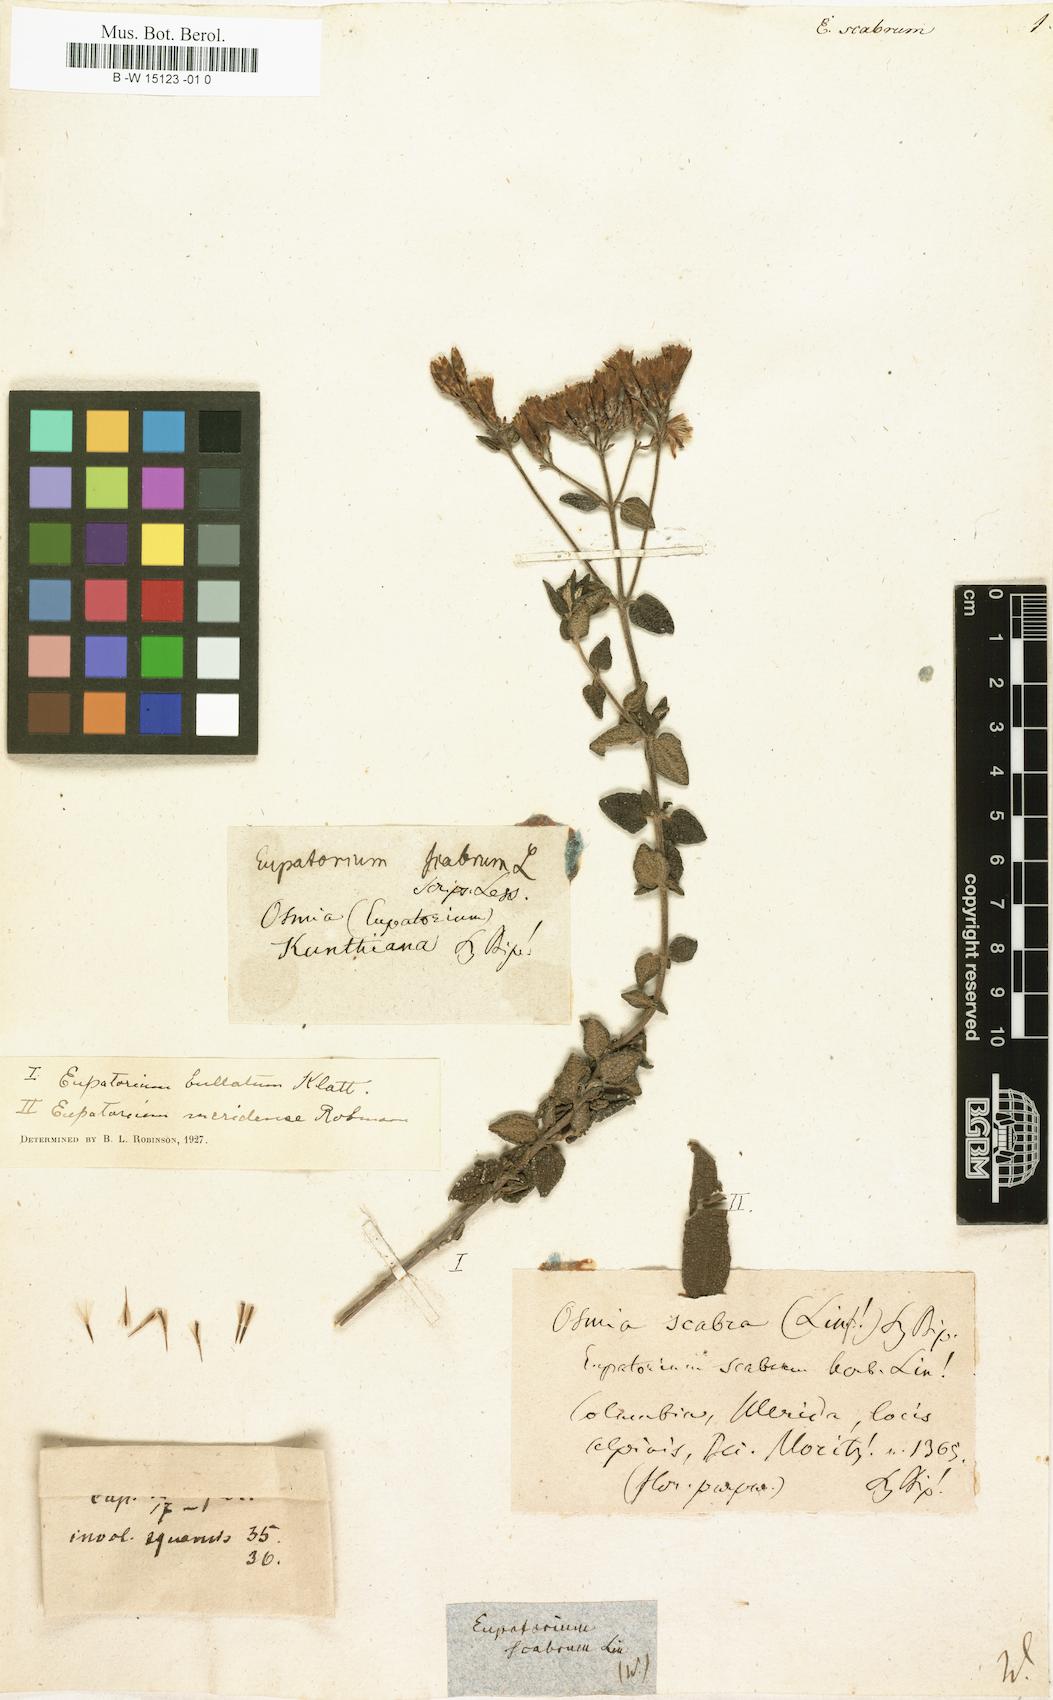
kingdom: Plantae
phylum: Tracheophyta
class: Magnoliopsida
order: Asterales
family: Asteraceae
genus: Chromolaena
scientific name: Chromolaena scabra
